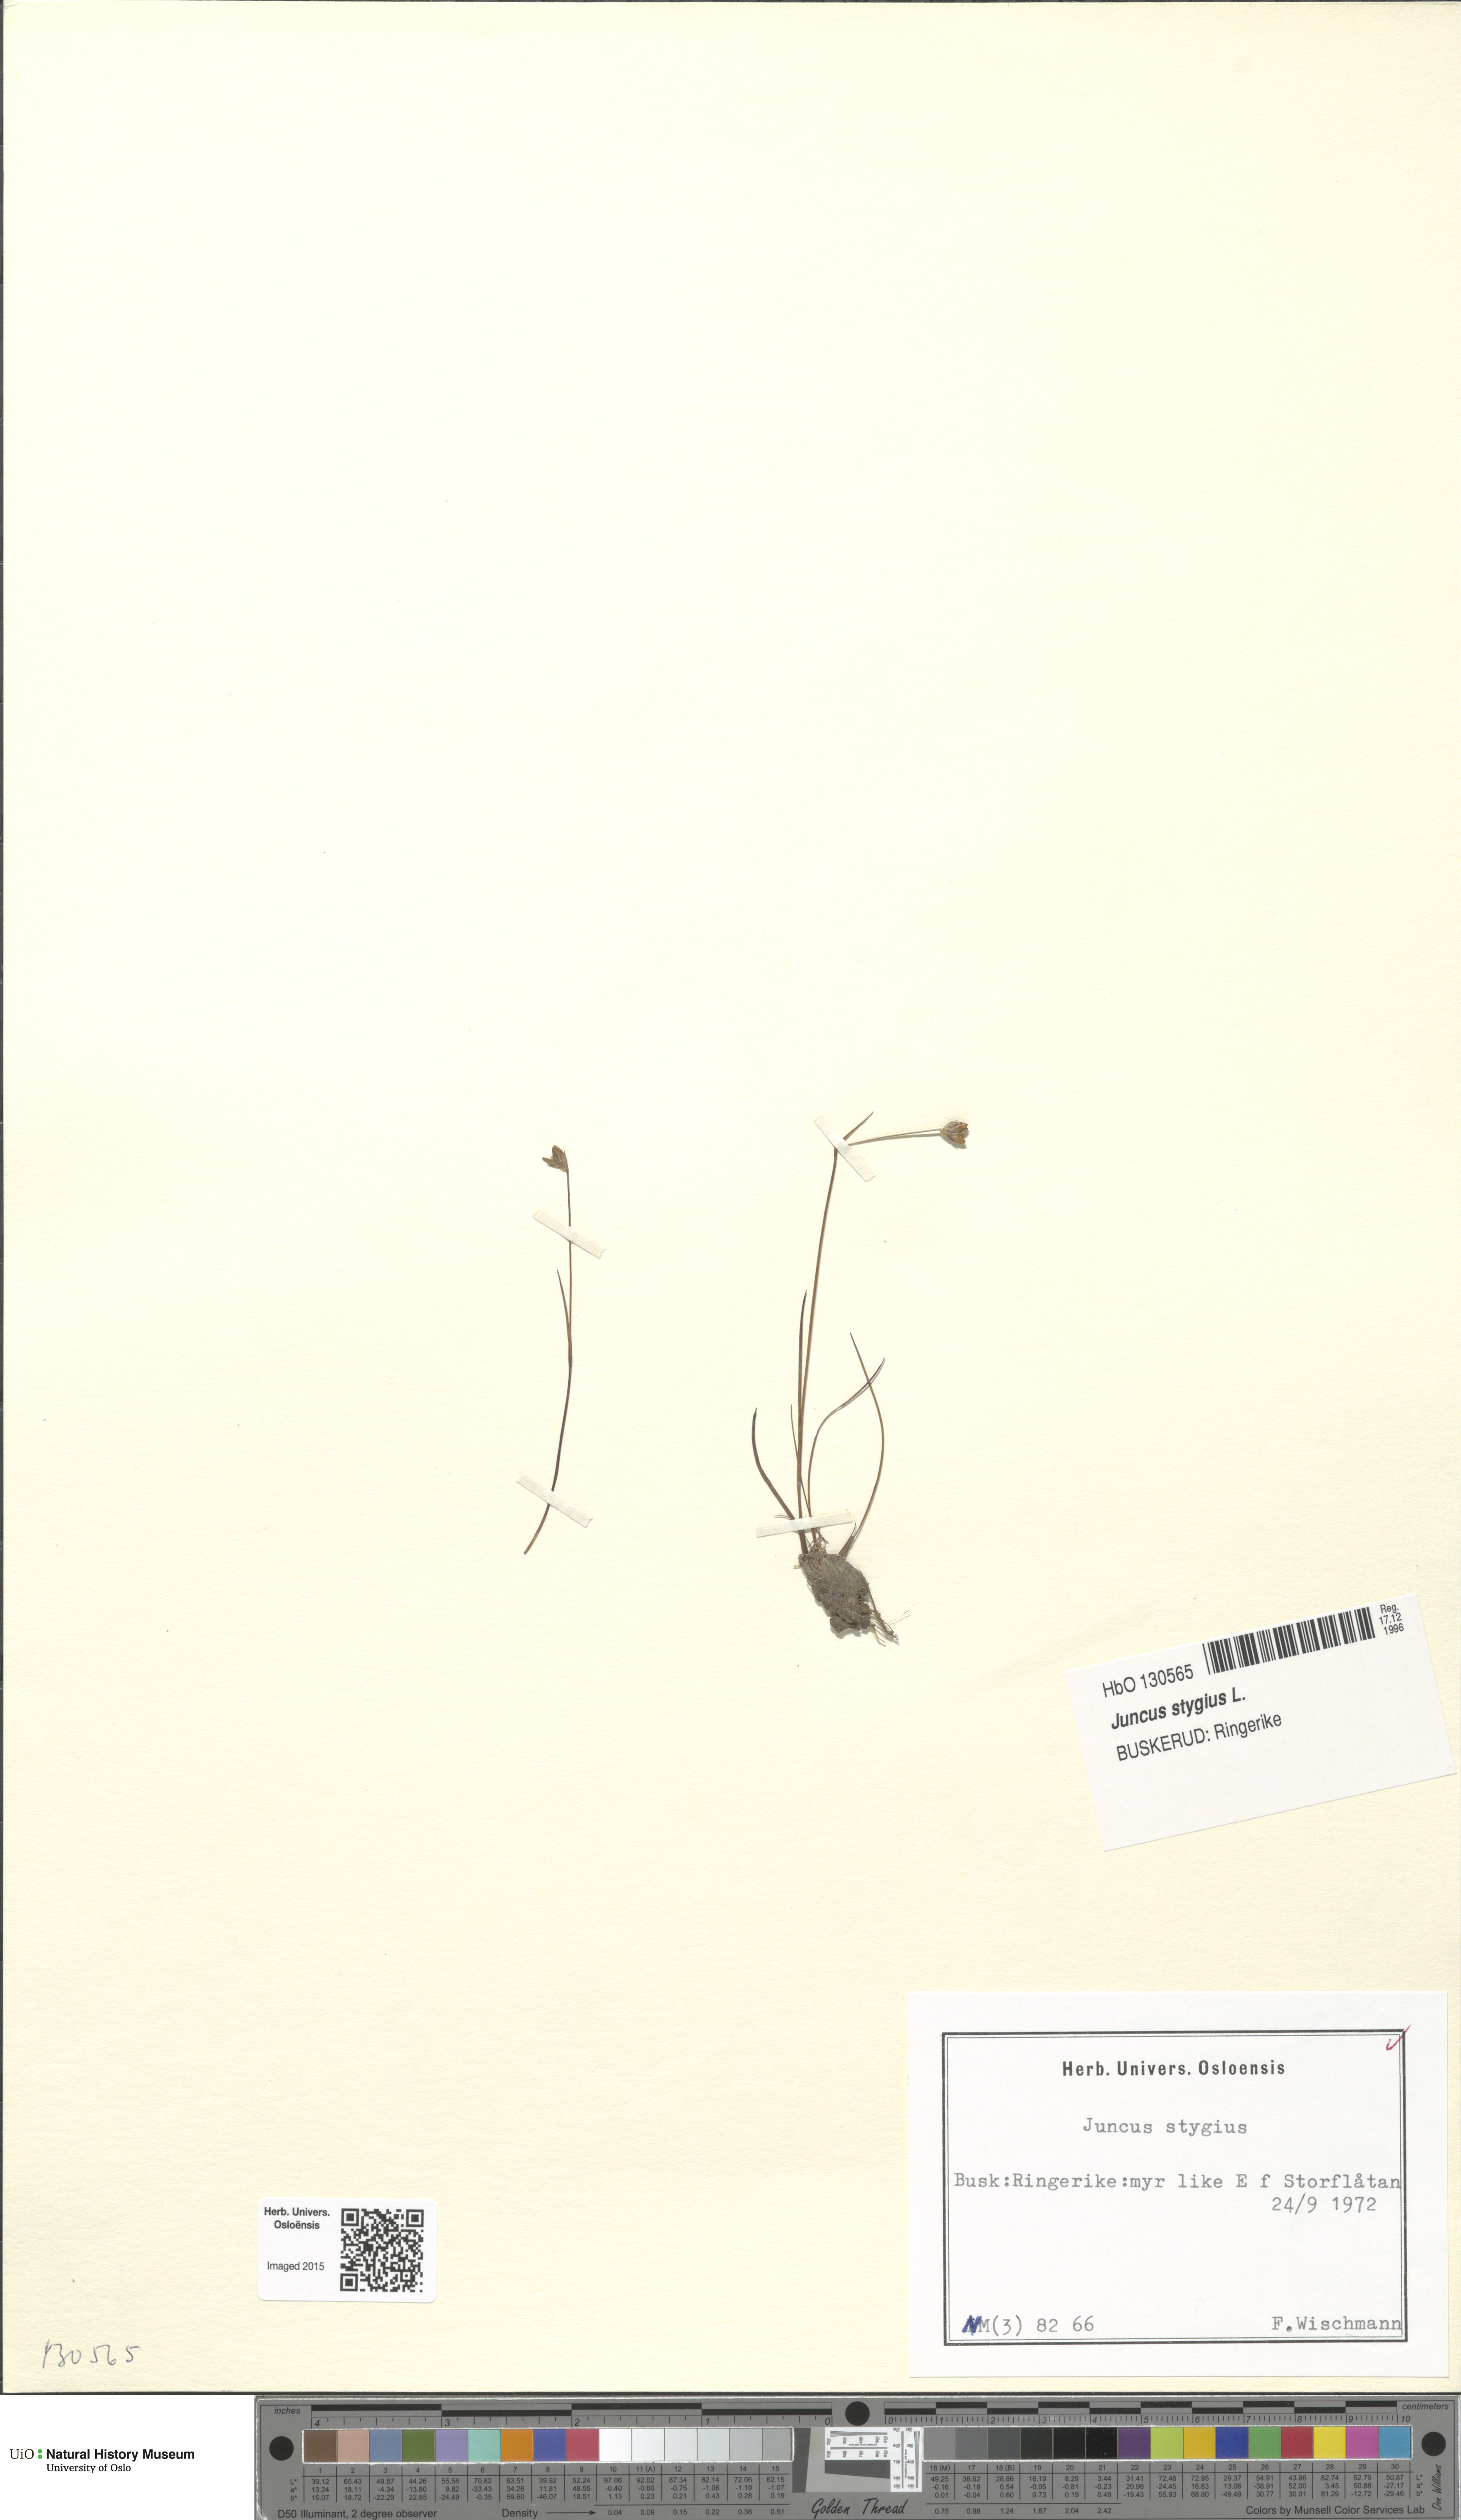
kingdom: Plantae
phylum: Tracheophyta
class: Liliopsida
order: Poales
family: Juncaceae
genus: Juncus
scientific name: Juncus stygius
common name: Bog rush
